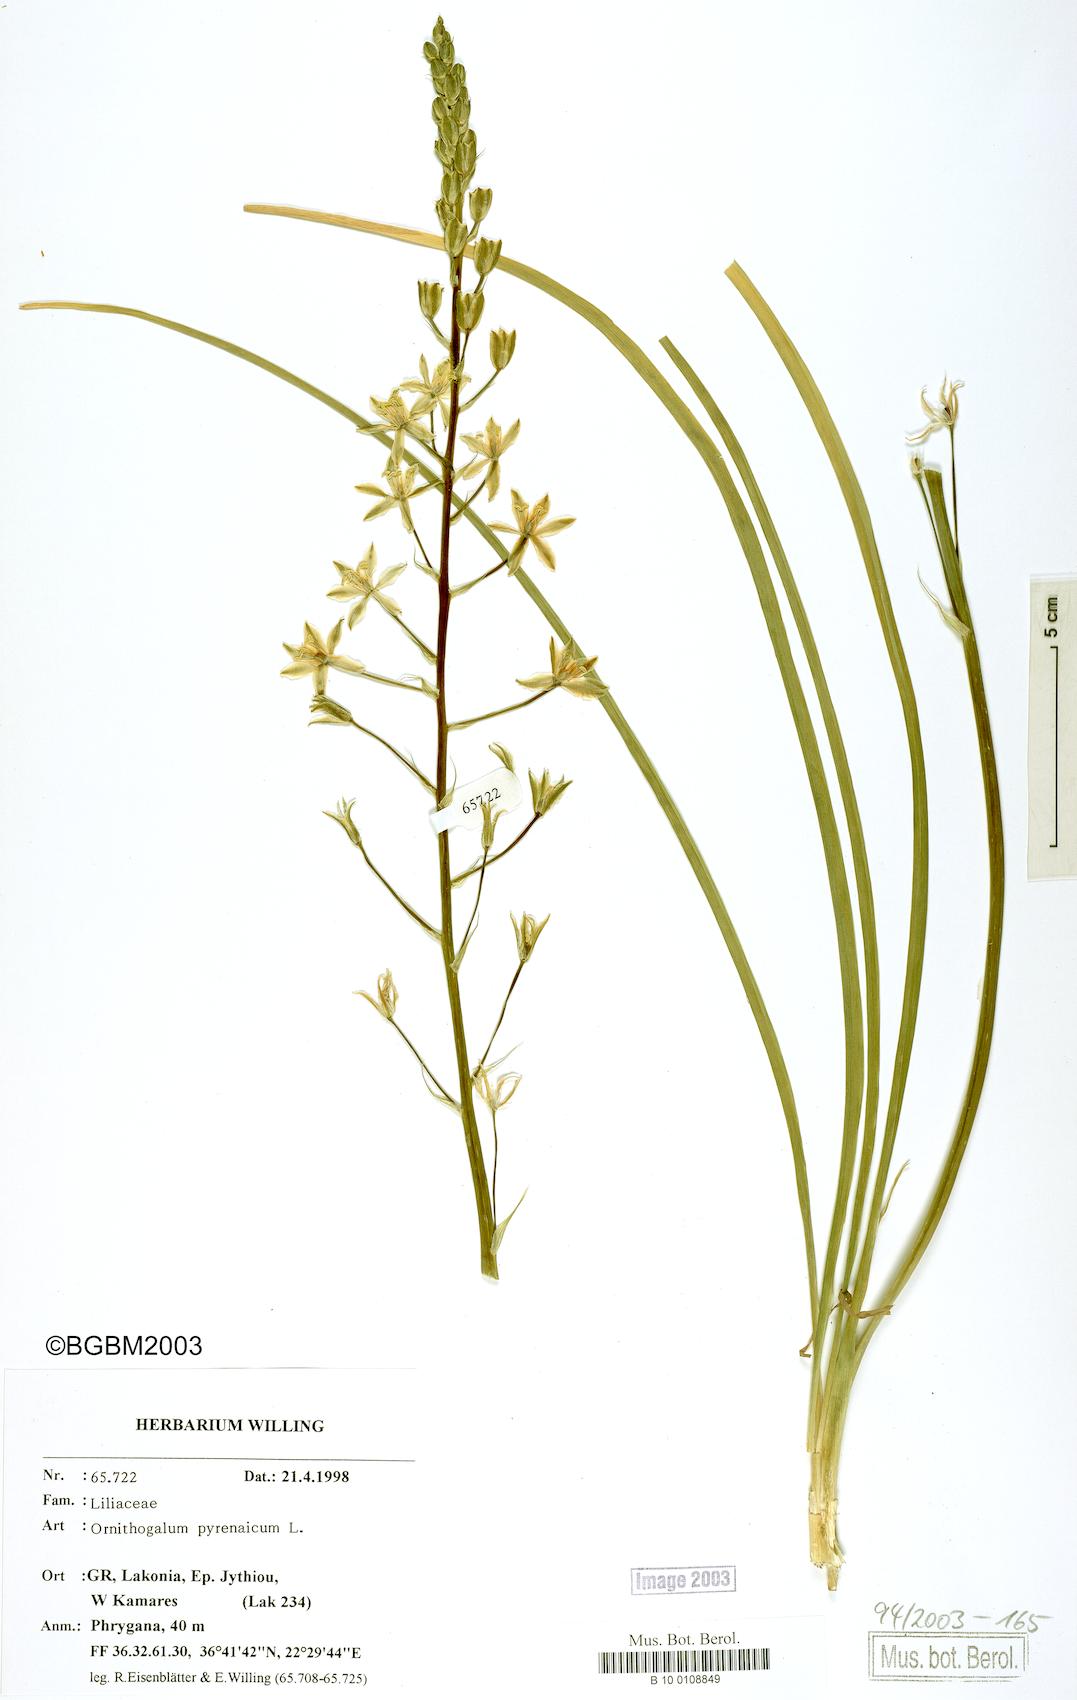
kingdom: Plantae
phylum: Tracheophyta
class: Liliopsida
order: Asparagales
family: Asparagaceae
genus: Ornithogalum
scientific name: Ornithogalum pyrenaicum
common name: Spiked star-of-bethlehem
